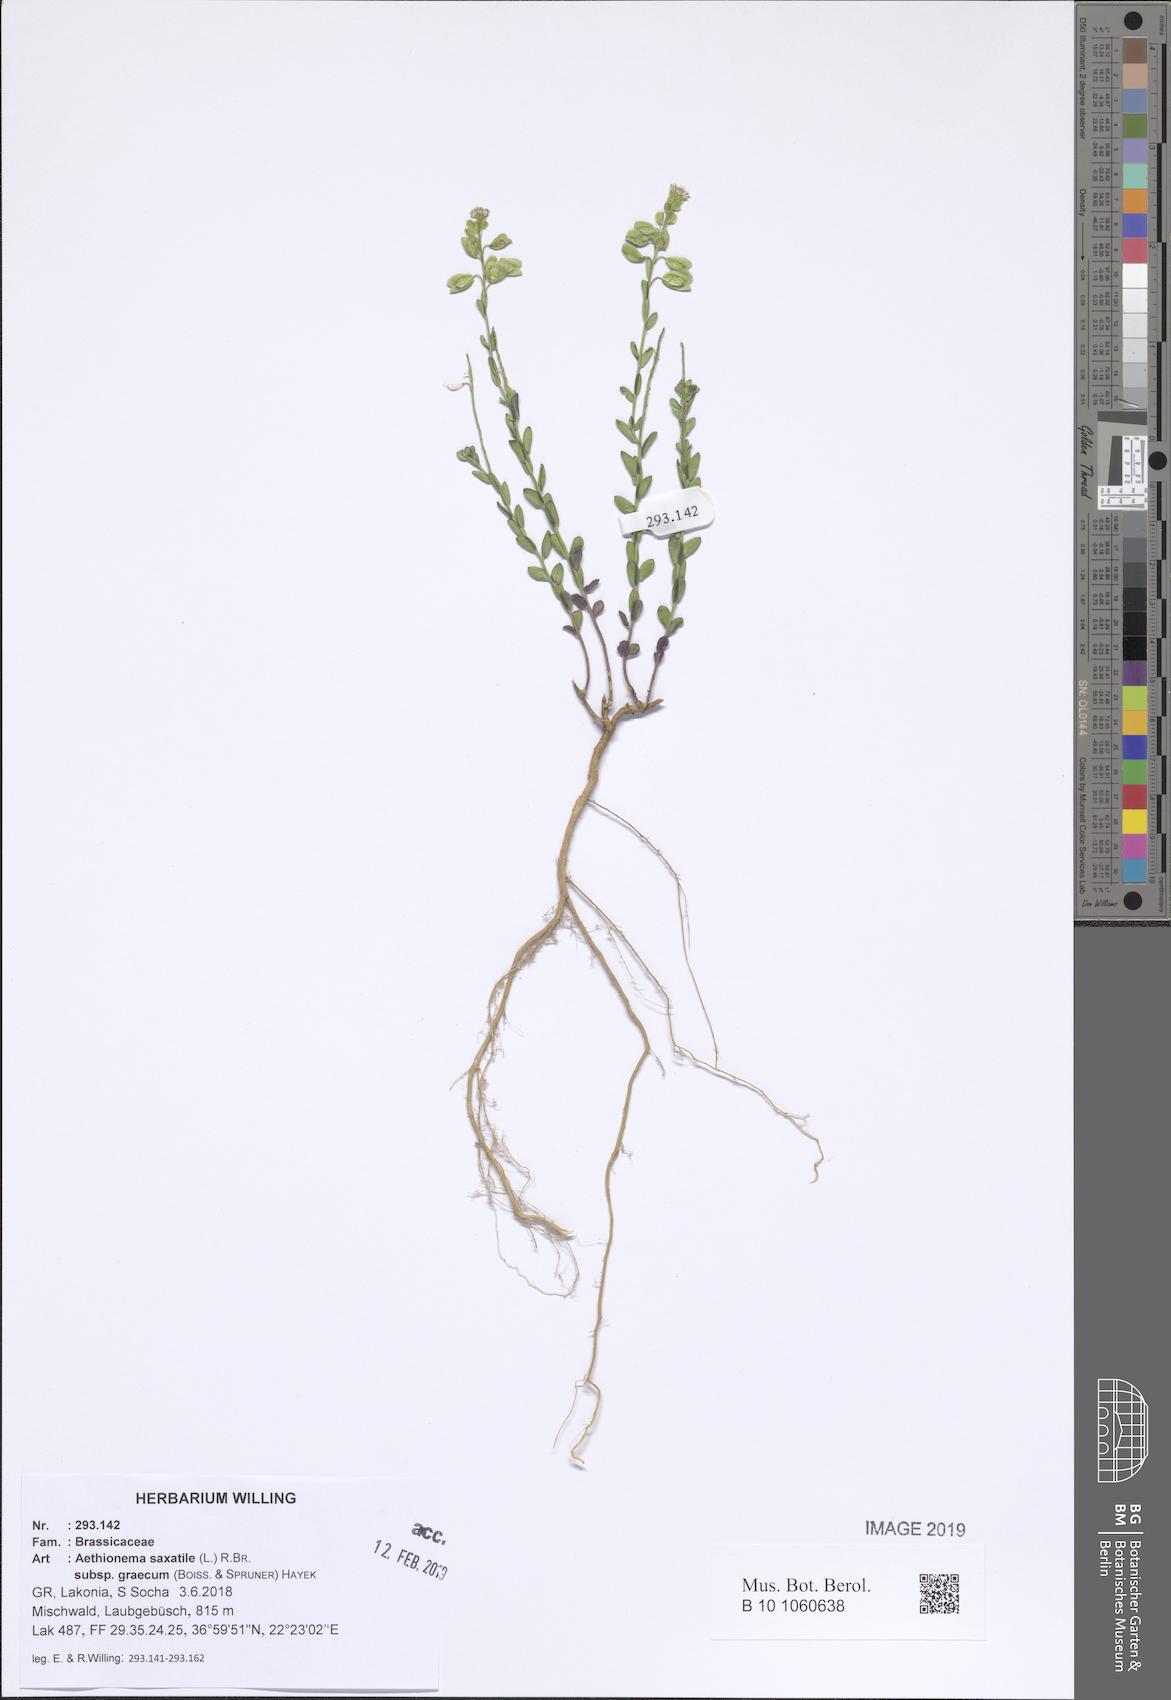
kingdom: Plantae
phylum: Tracheophyta
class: Magnoliopsida
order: Brassicales
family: Brassicaceae
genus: Aethionema
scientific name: Aethionema saxatile
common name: Burnt candytuft
